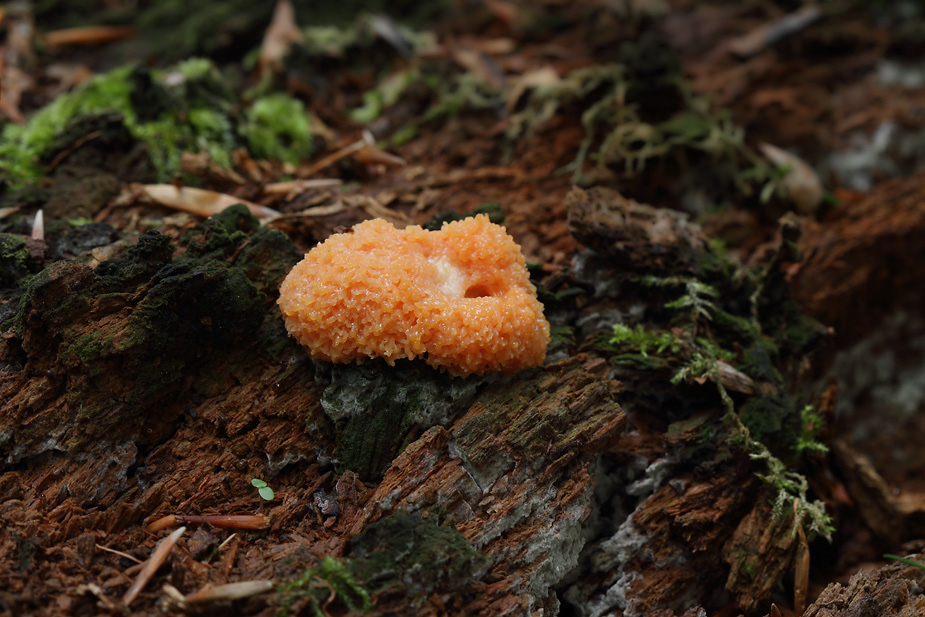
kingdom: Protozoa
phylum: Mycetozoa
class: Myxomycetes
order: Cribrariales
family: Tubiferaceae
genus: Tubifera
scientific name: Tubifera ferruginosa
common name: kanel-støvrør
